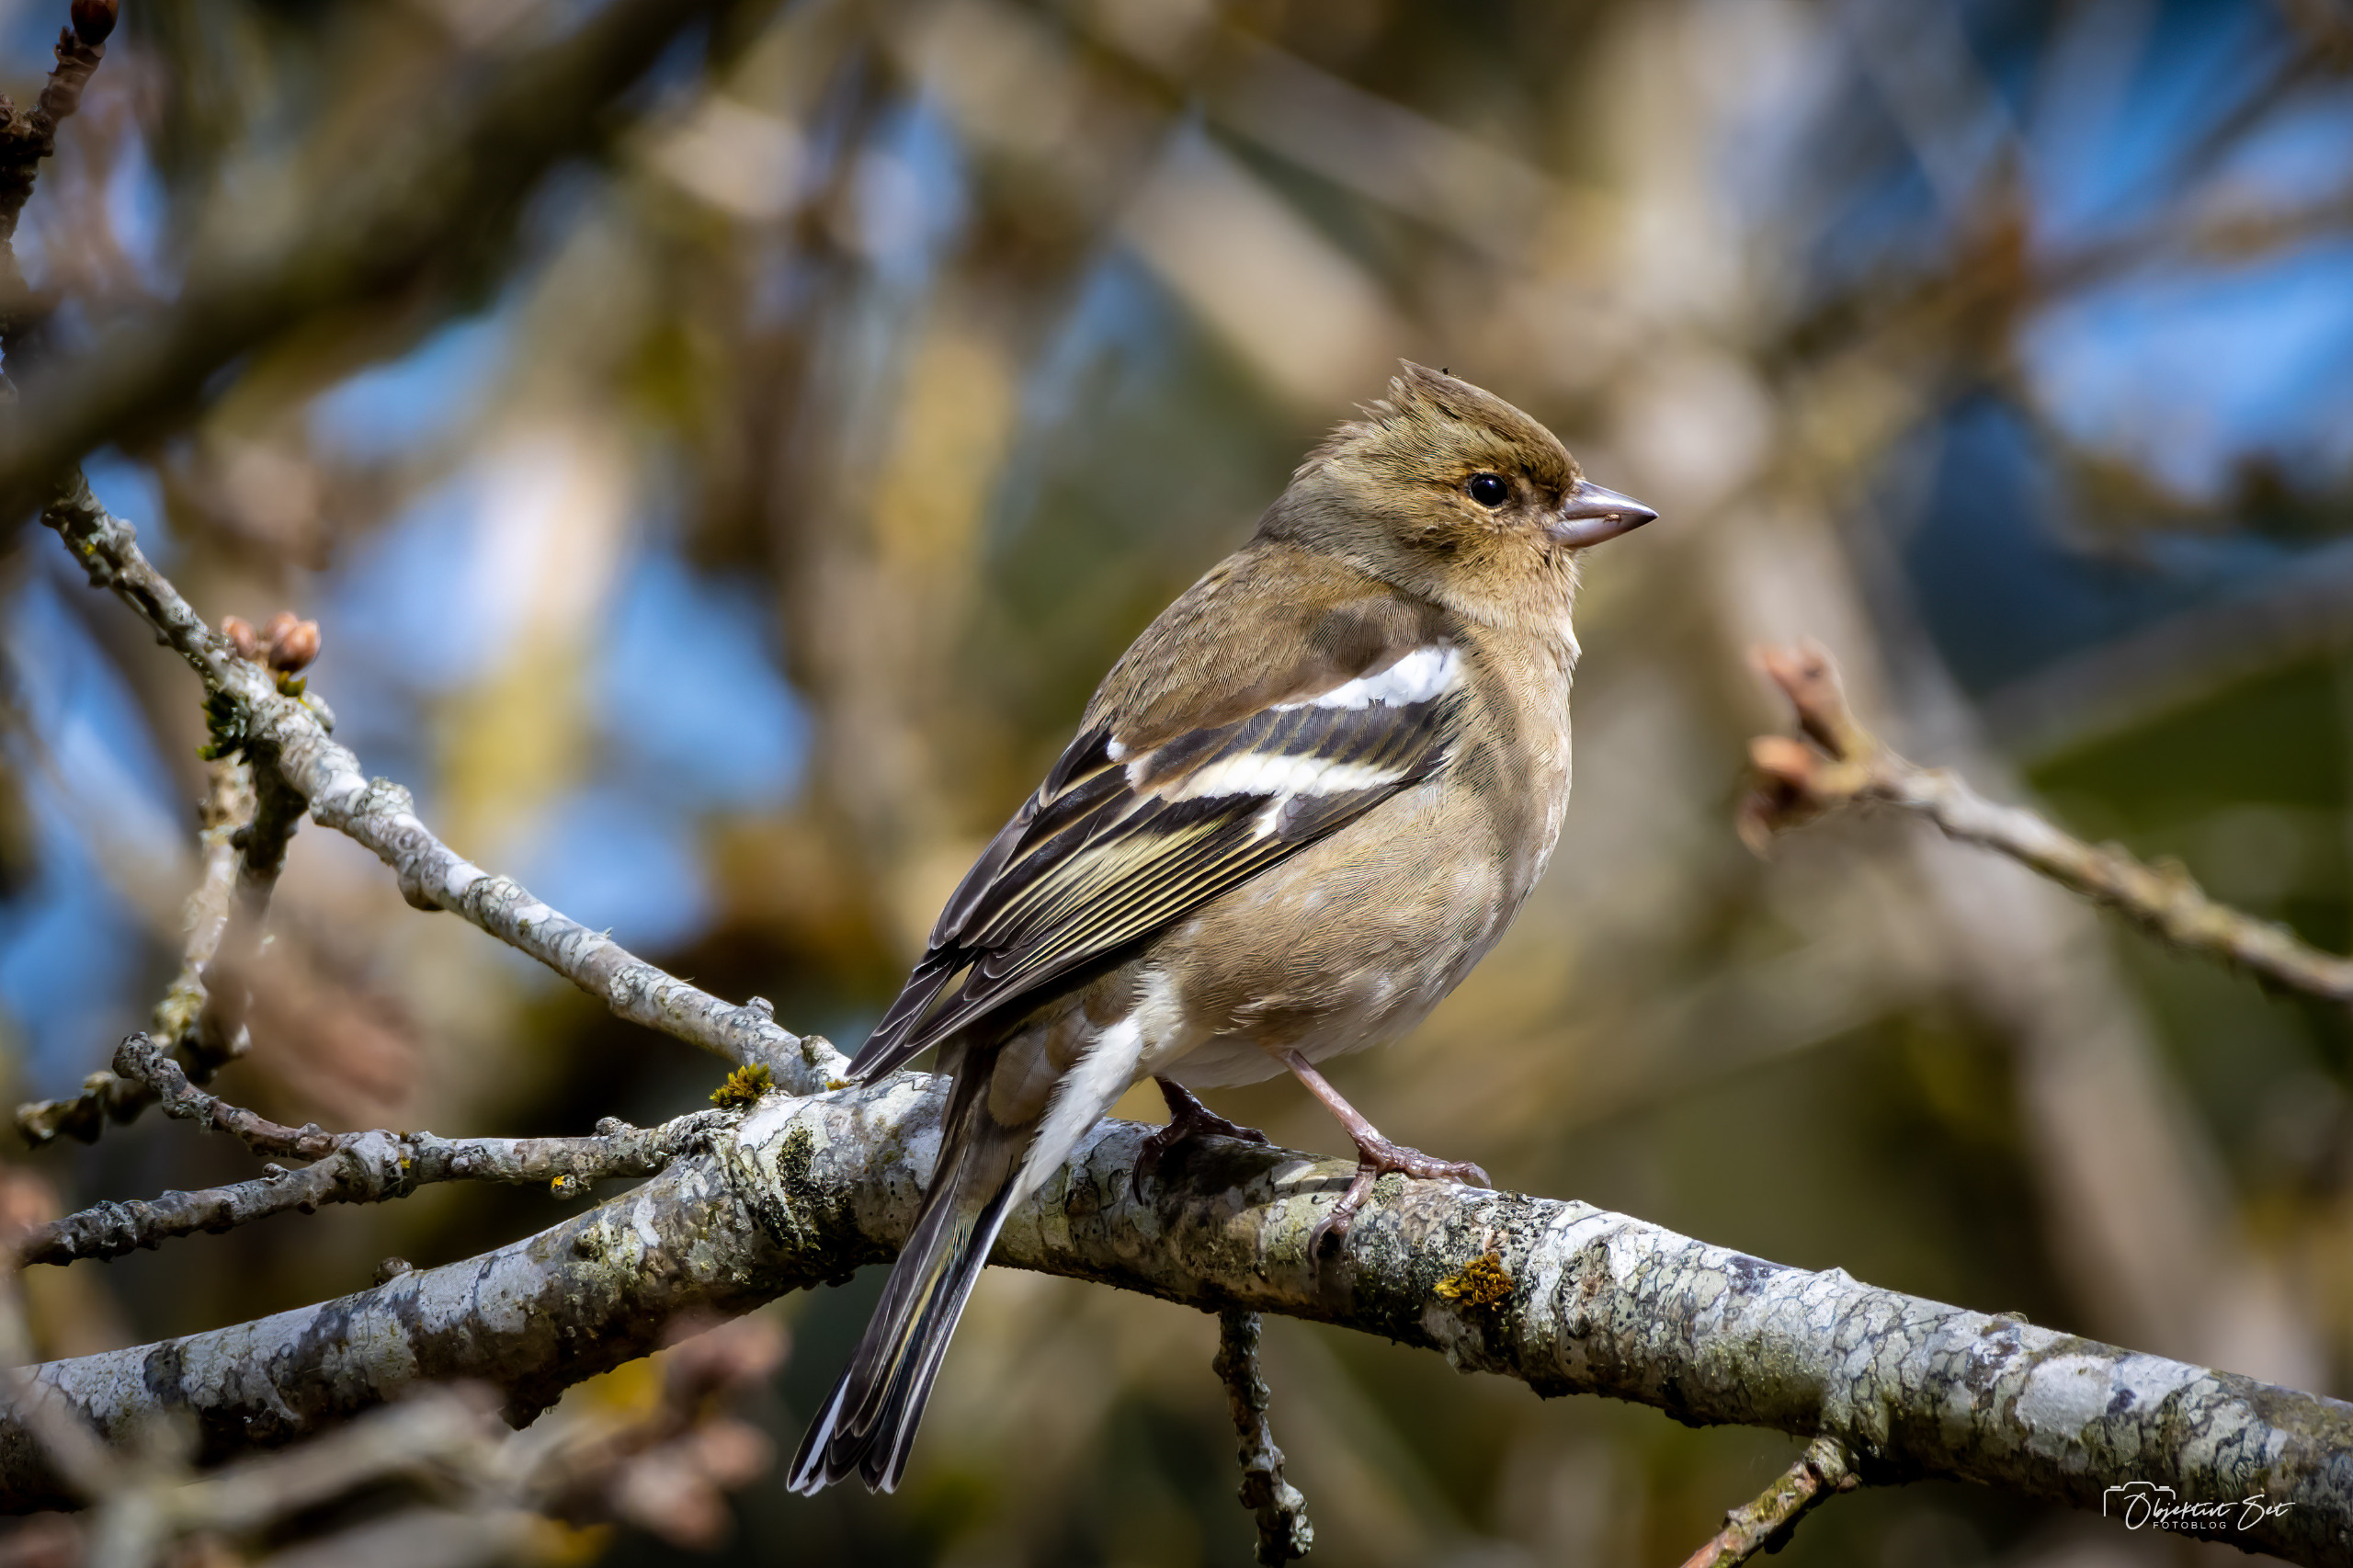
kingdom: Animalia
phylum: Chordata
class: Aves
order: Passeriformes
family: Fringillidae
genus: Fringilla
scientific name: Fringilla coelebs
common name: Bogfinke
